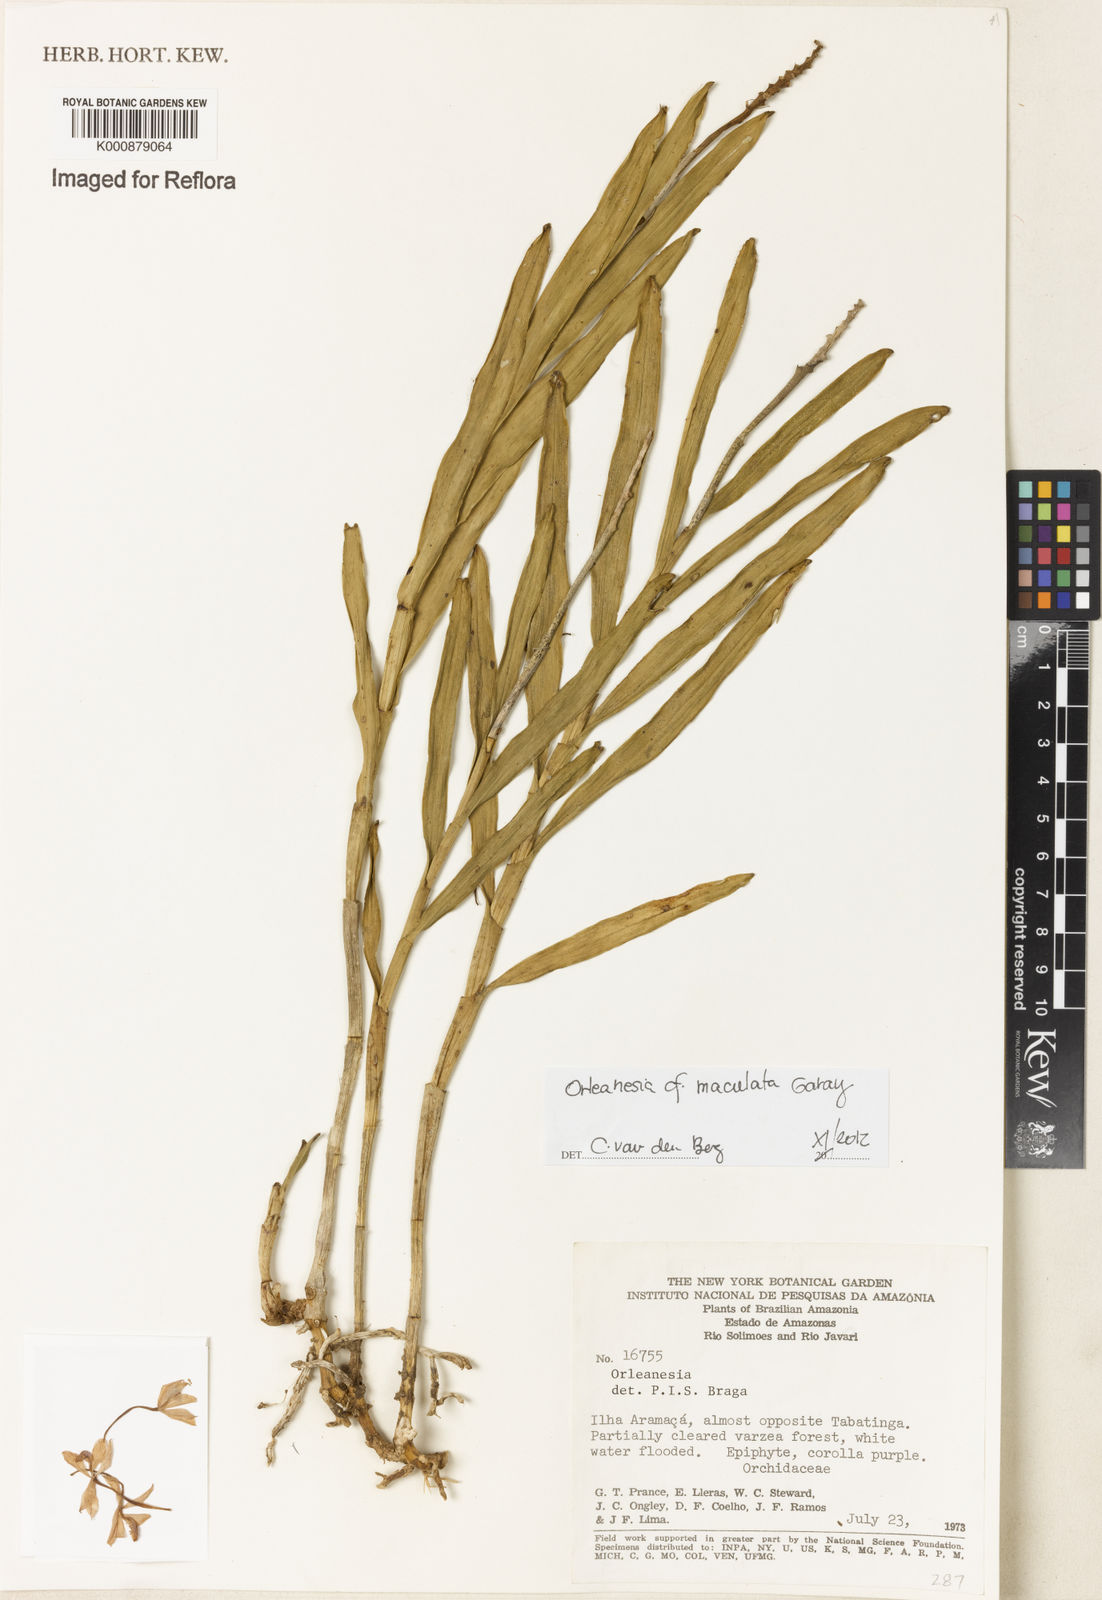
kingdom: Plantae
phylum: Tracheophyta
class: Liliopsida
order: Asparagales
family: Orchidaceae
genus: Orleanesia
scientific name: Orleanesia maculata
